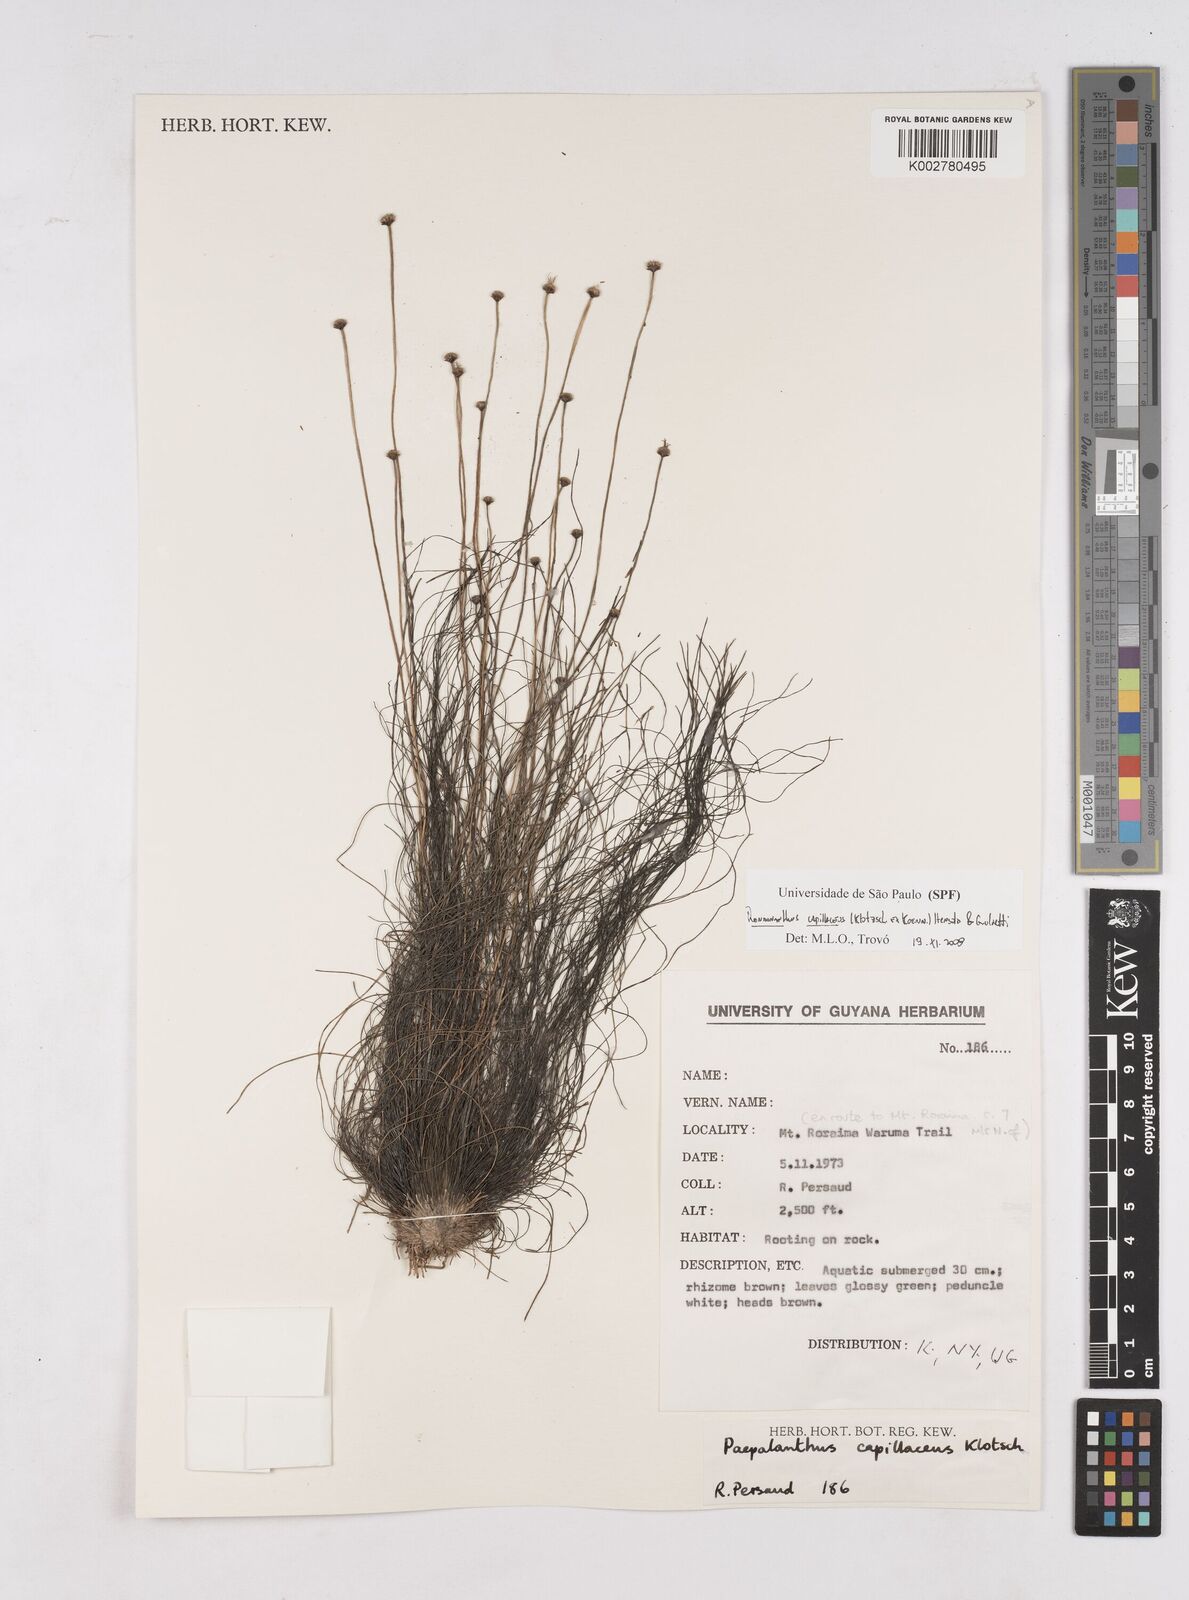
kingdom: Plantae
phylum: Tracheophyta
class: Liliopsida
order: Poales
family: Eriocaulaceae
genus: Rondonanthus
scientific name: Rondonanthus capillaceus
